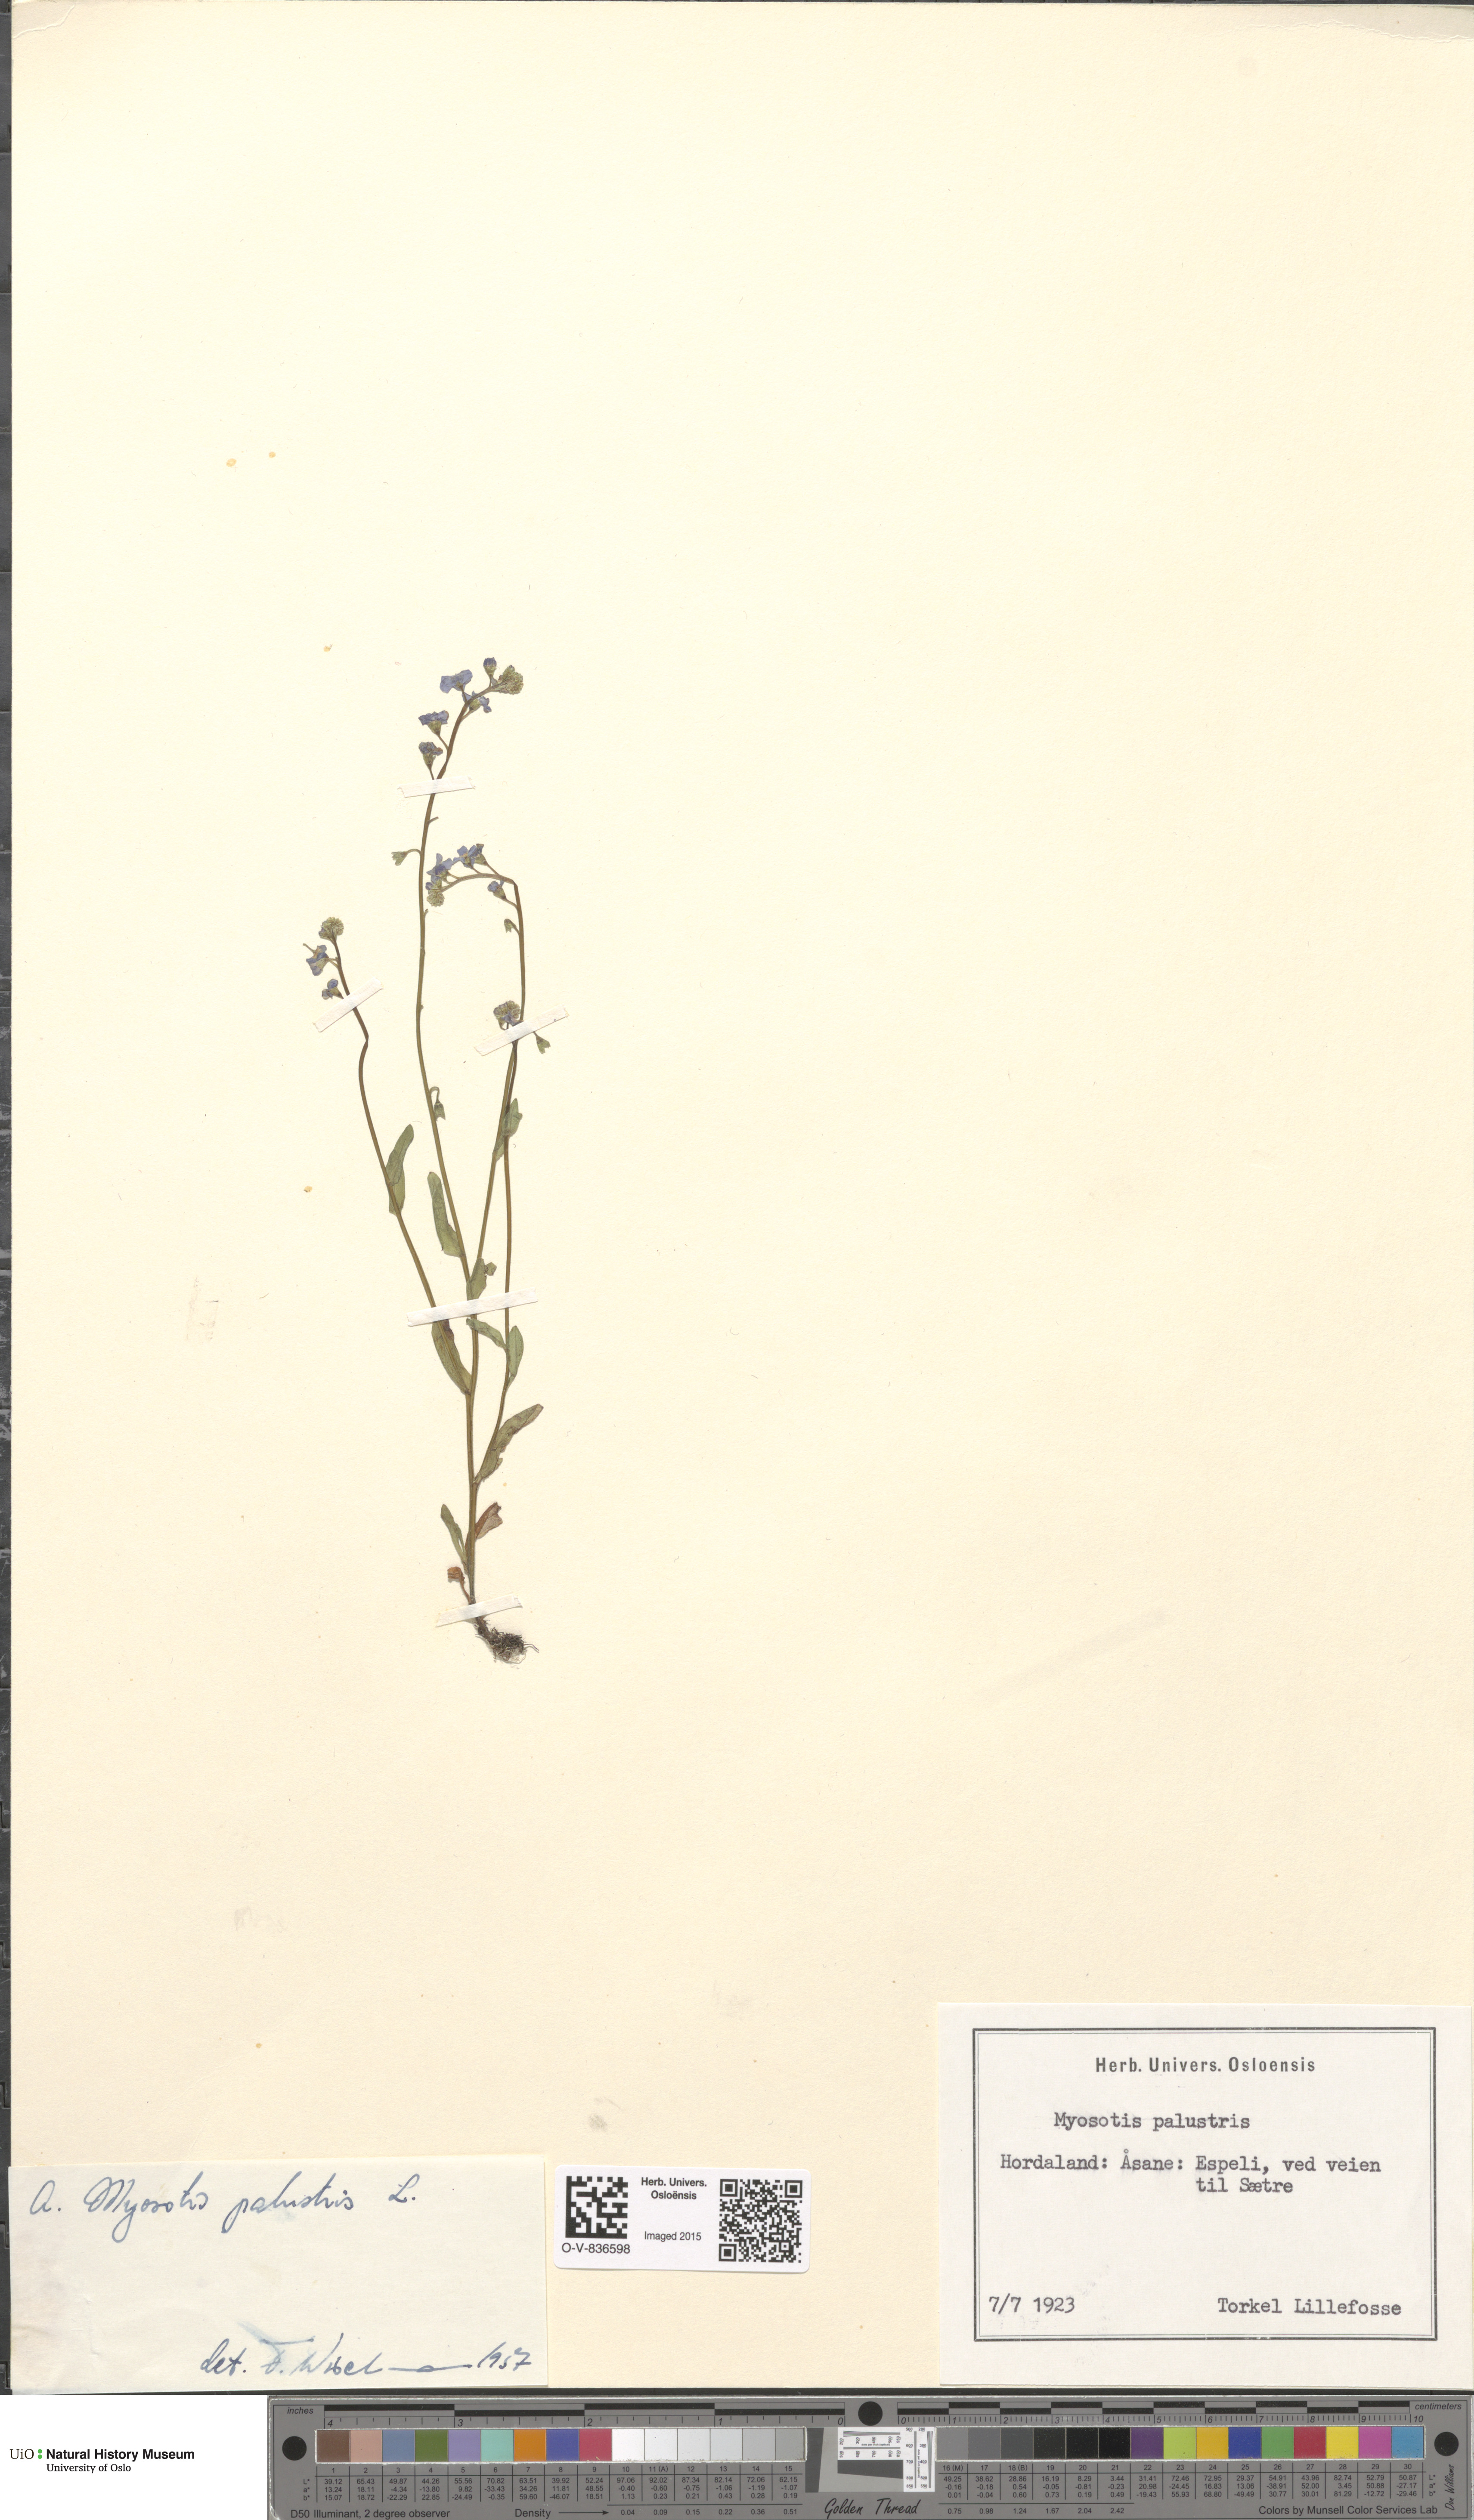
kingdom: Plantae
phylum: Tracheophyta
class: Magnoliopsida
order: Boraginales
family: Boraginaceae
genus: Myosotis
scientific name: Myosotis scorpioides
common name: Water forget-me-not
